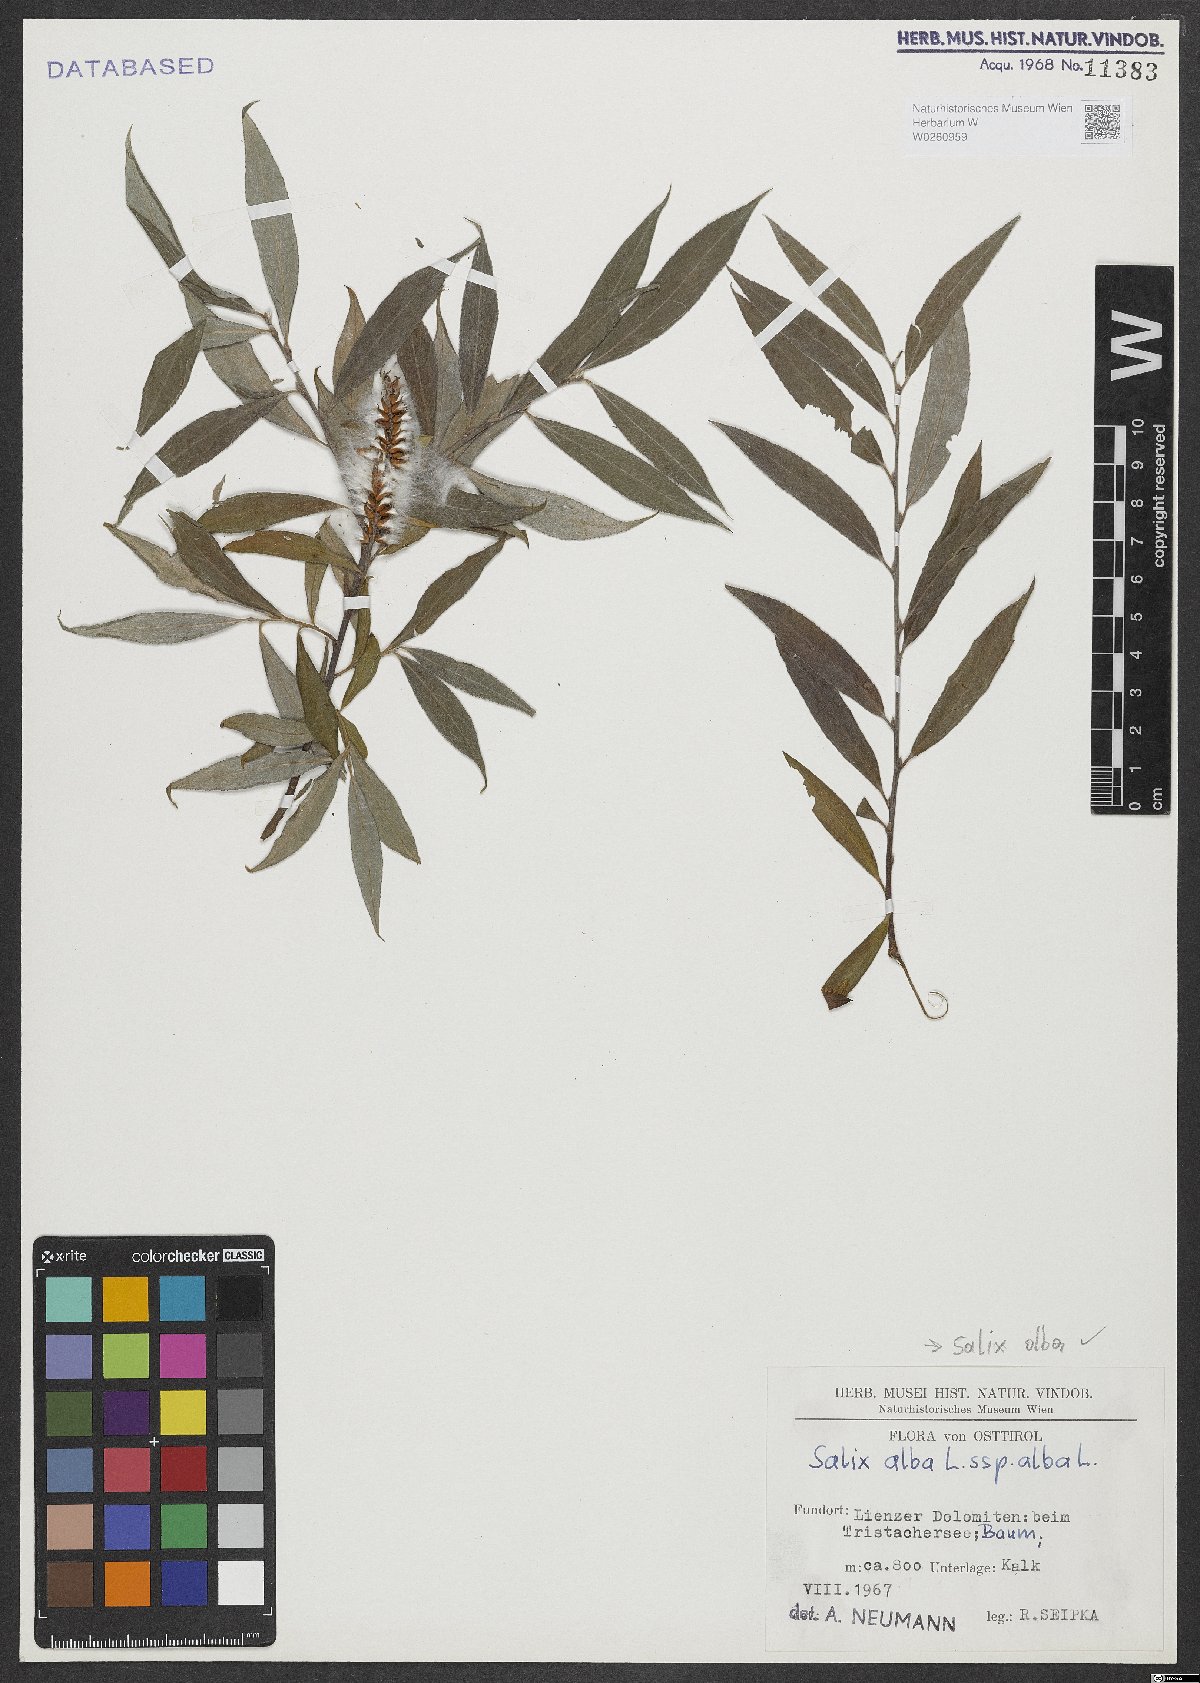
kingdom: Plantae
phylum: Tracheophyta
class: Magnoliopsida
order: Malpighiales
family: Salicaceae
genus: Salix
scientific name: Salix alba
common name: White willow
